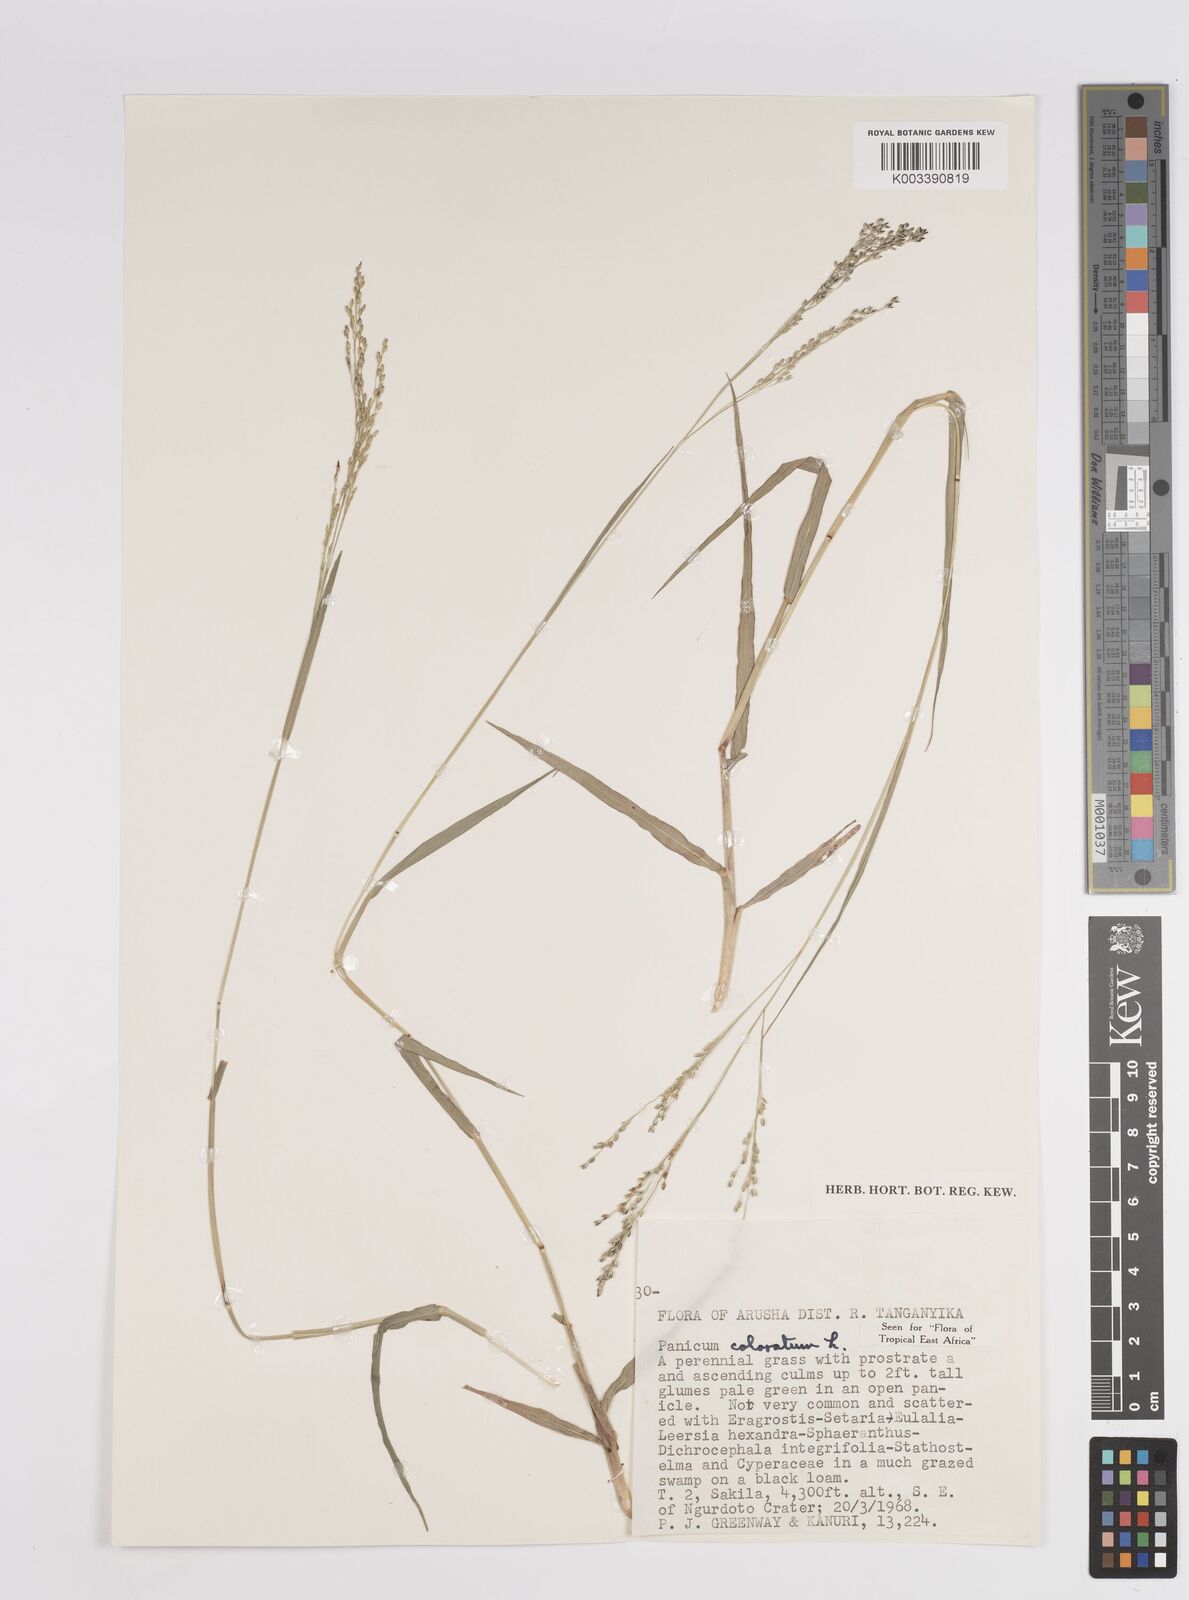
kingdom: Plantae
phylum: Tracheophyta
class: Liliopsida
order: Poales
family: Poaceae
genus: Panicum
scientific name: Panicum coloratum
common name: Kleingrass
